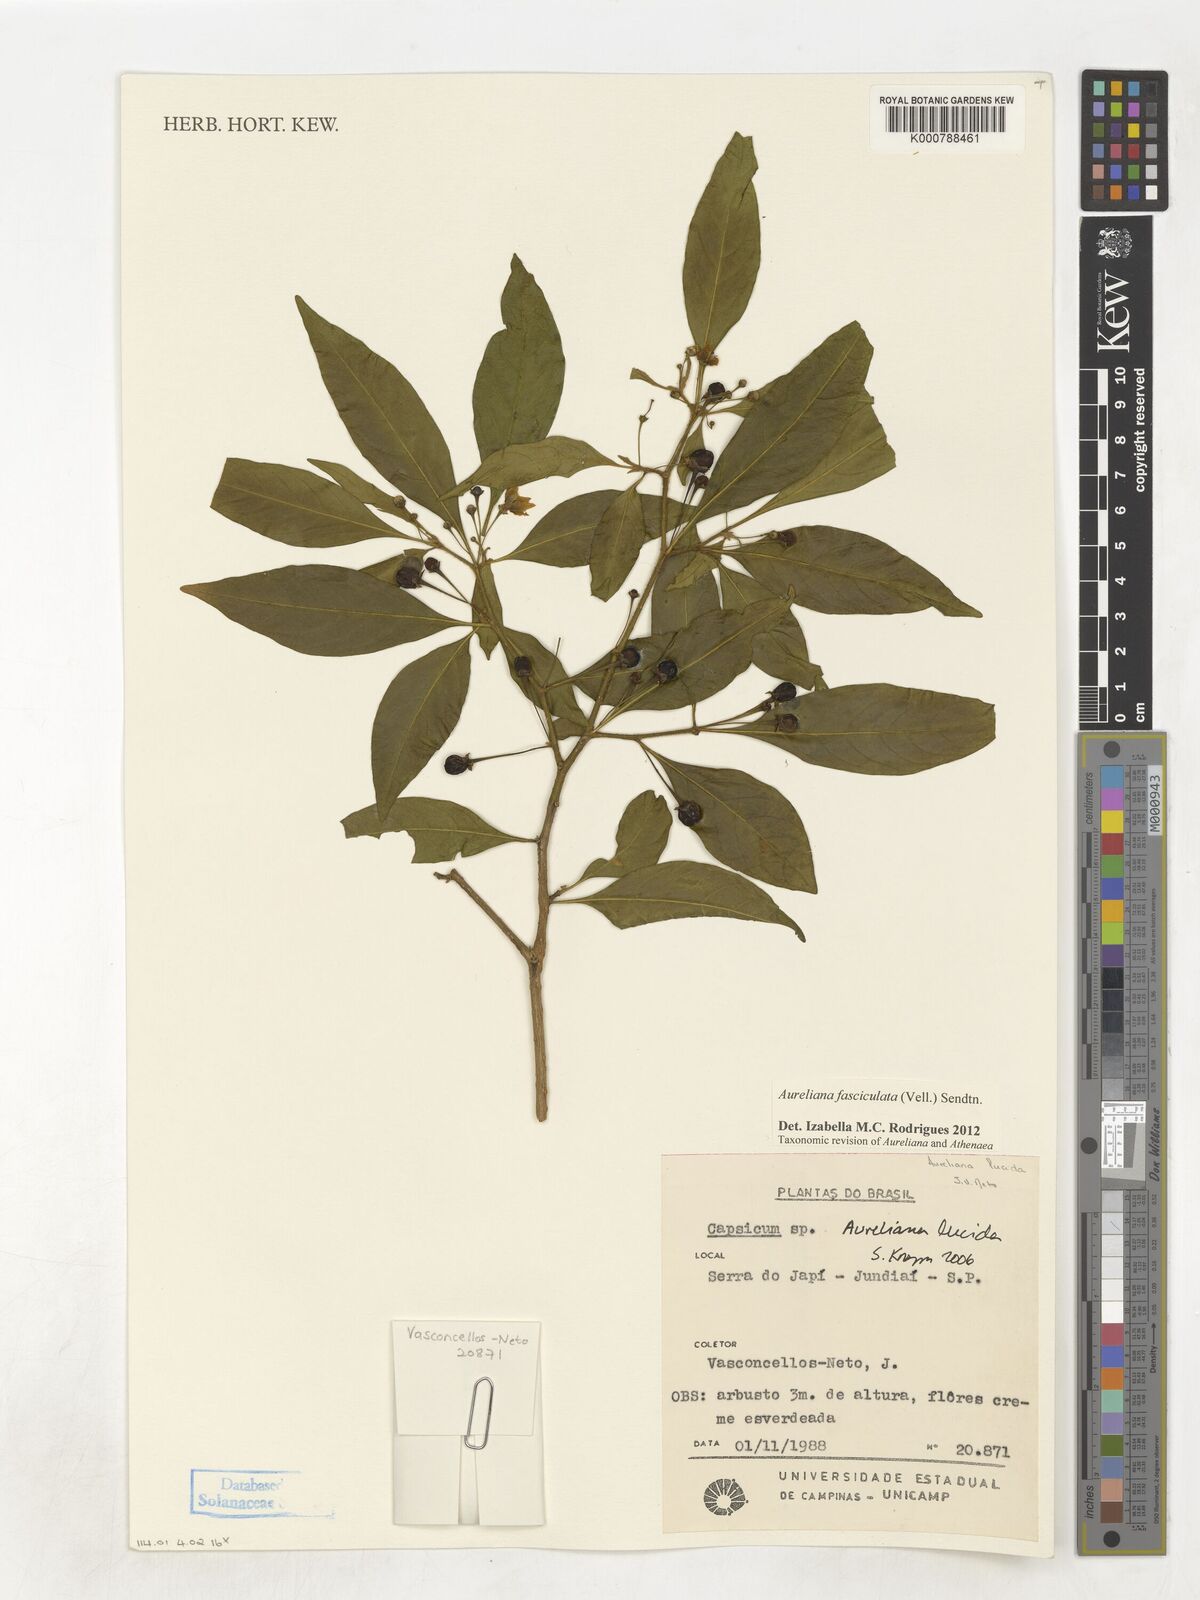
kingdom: Plantae
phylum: Tracheophyta
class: Magnoliopsida
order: Solanales
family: Solanaceae
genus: Athenaea
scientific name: Athenaea fasciculata
